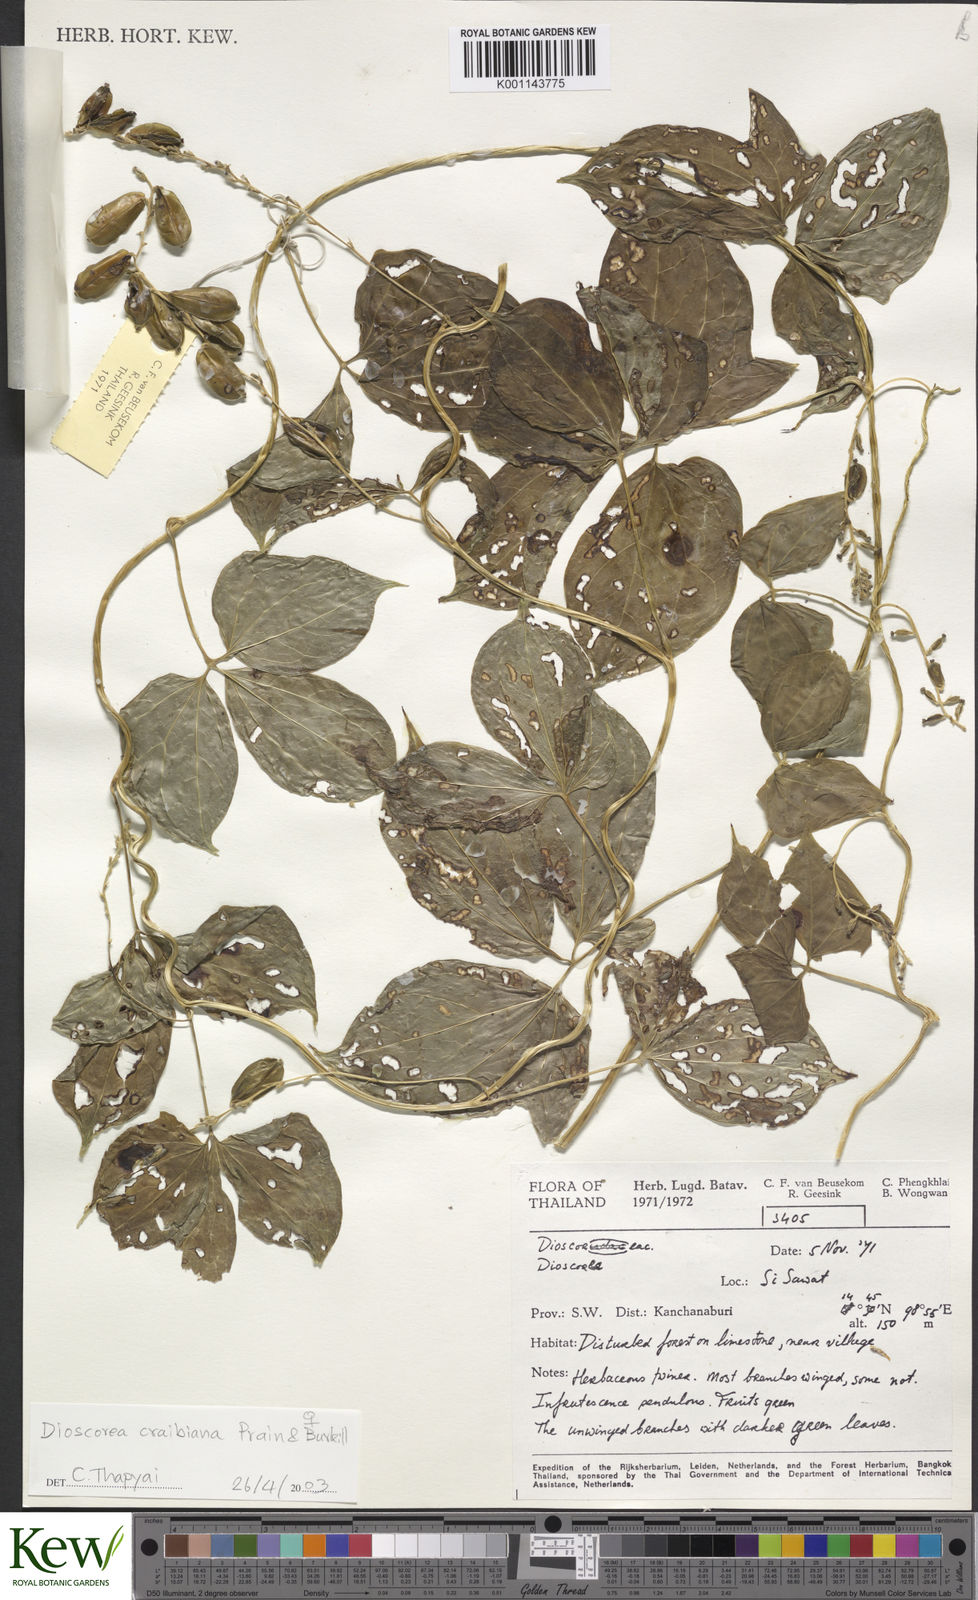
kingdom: Plantae
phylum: Tracheophyta
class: Liliopsida
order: Dioscoreales
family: Dioscoreaceae
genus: Dioscorea
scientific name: Dioscorea craibiana
